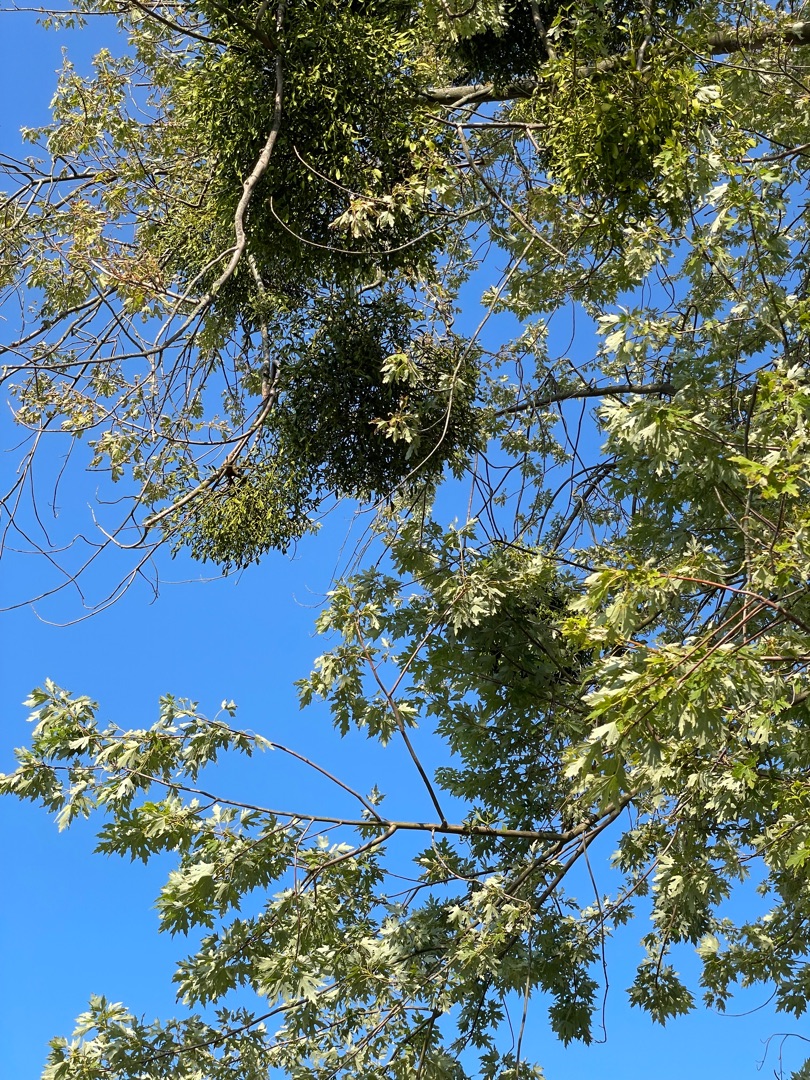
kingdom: Plantae
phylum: Tracheophyta
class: Magnoliopsida
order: Santalales
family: Viscaceae
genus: Viscum
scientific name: Viscum album
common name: Mistelten
